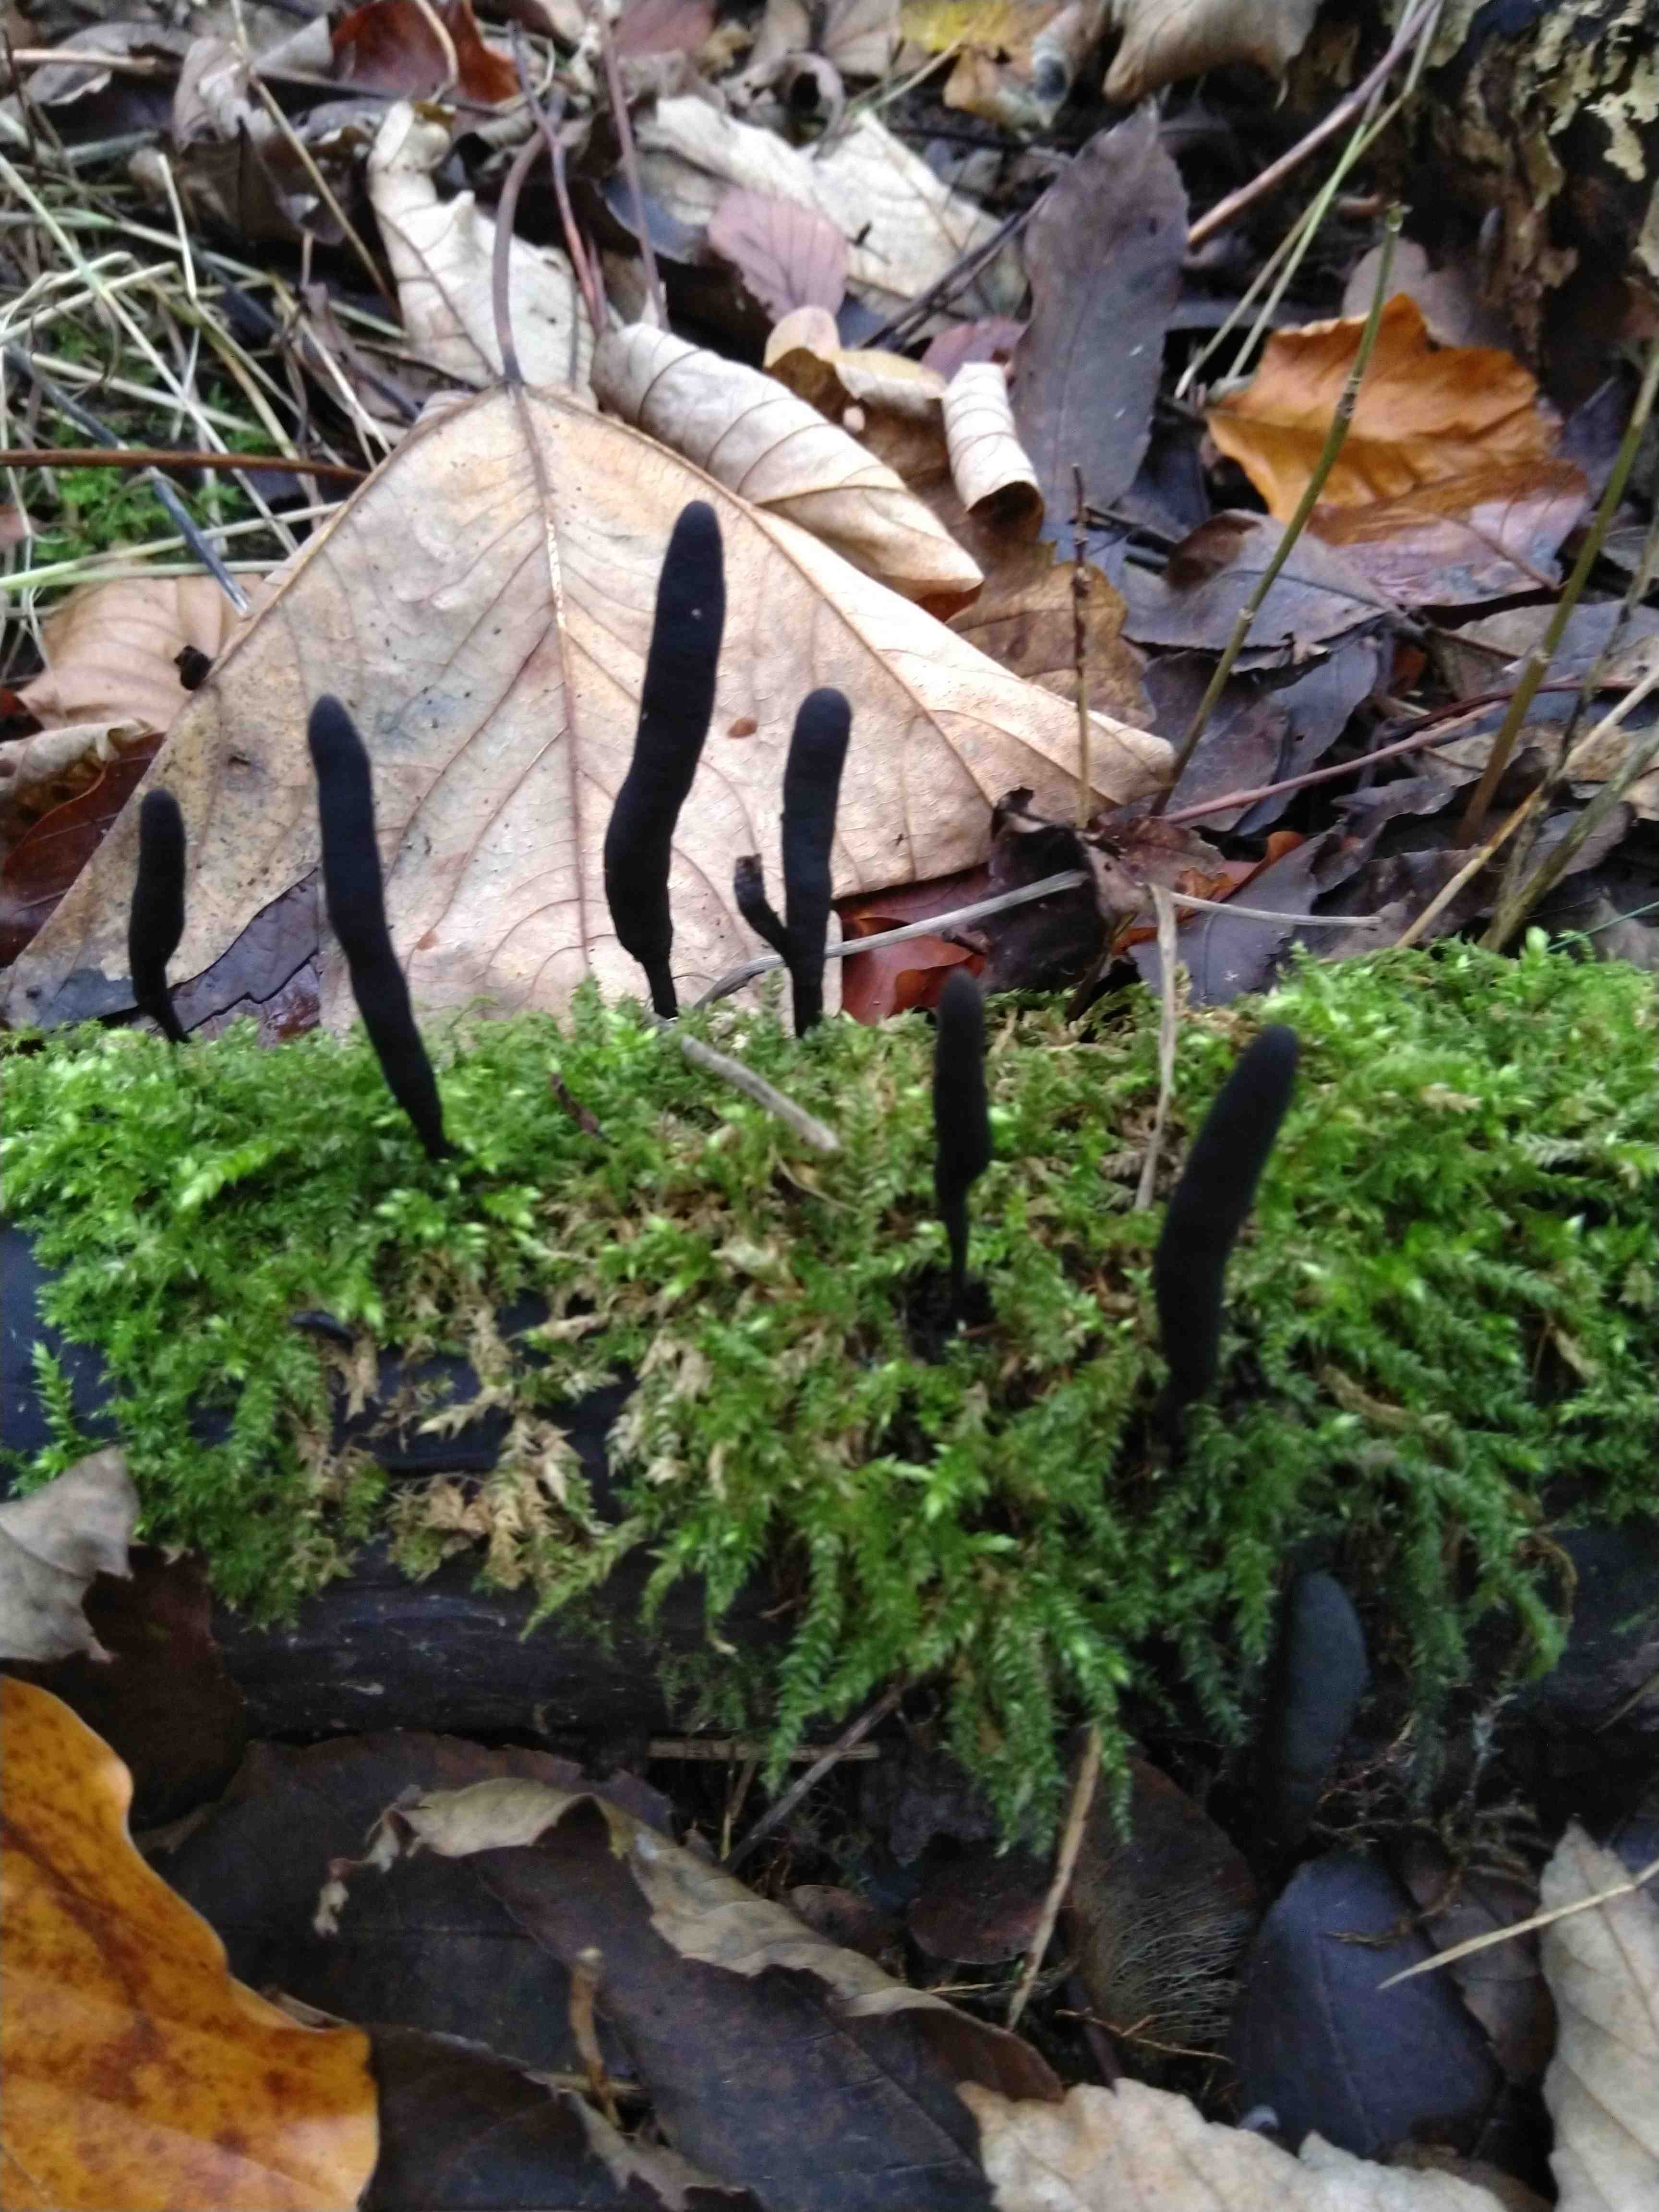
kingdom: Fungi
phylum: Ascomycota
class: Sordariomycetes
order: Xylariales
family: Xylariaceae
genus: Xylaria
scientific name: Xylaria longipes
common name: slank stødsvamp
